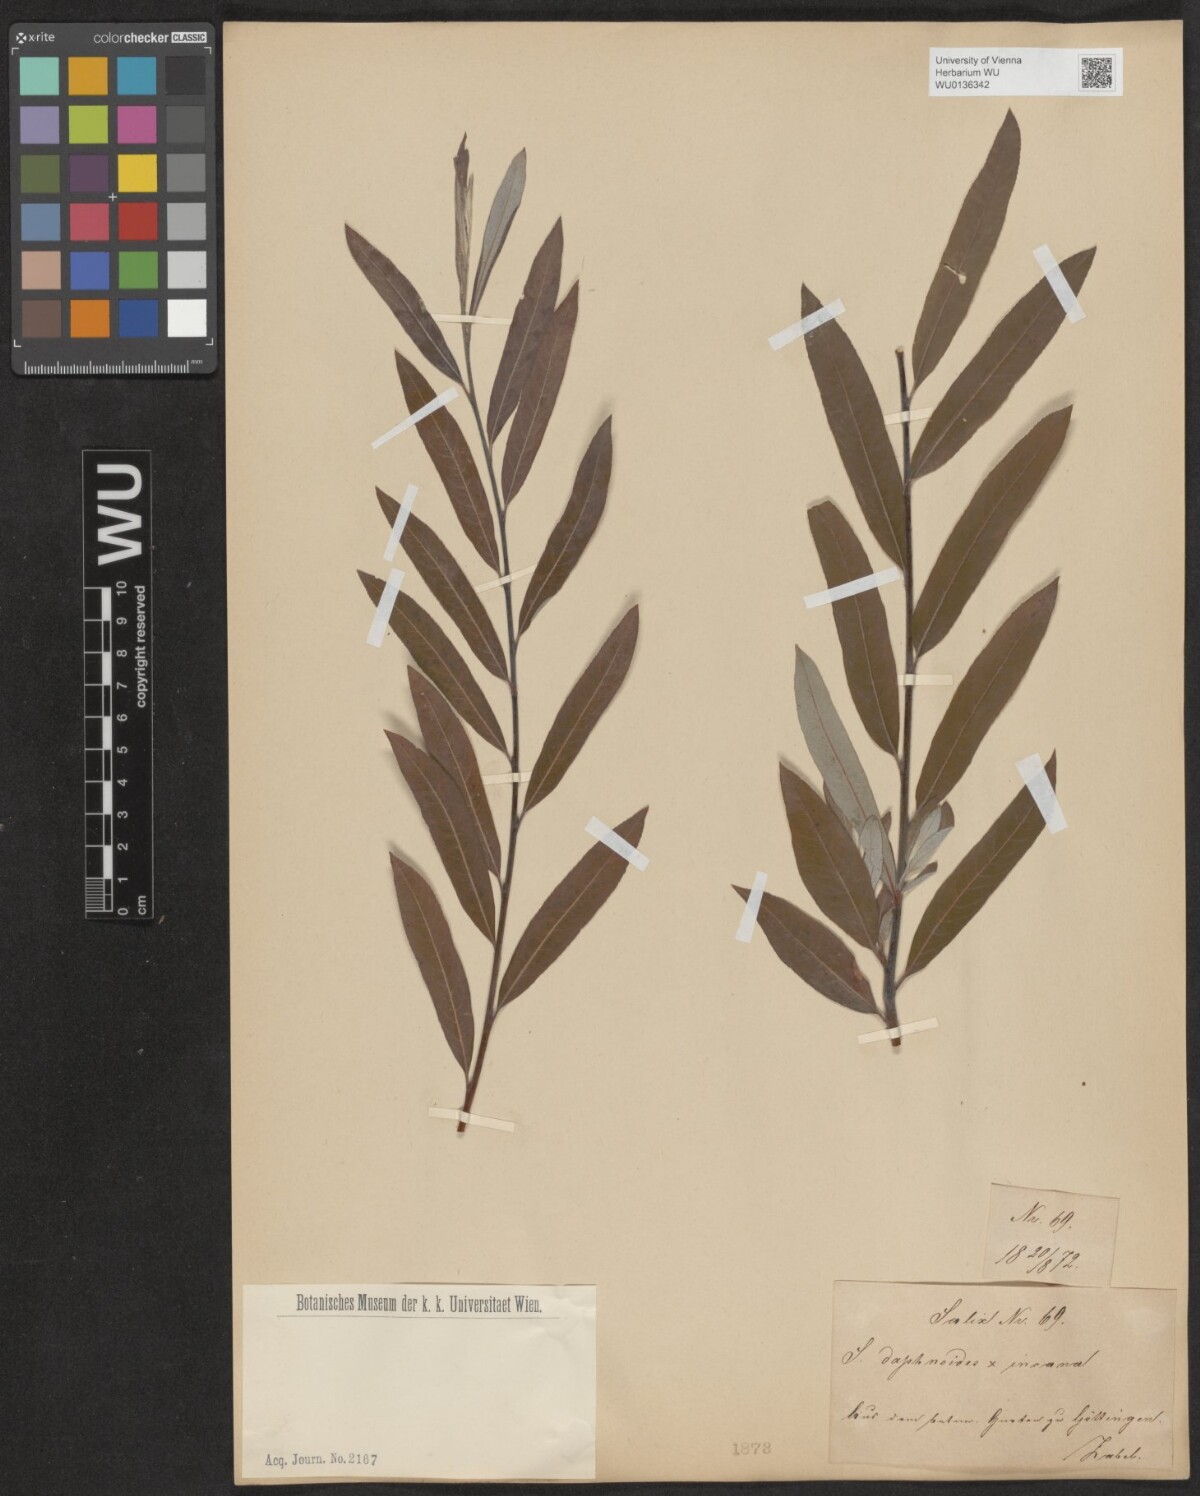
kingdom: Plantae
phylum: Tracheophyta
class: Magnoliopsida
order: Malpighiales
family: Salicaceae
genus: Salix
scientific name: Salix
